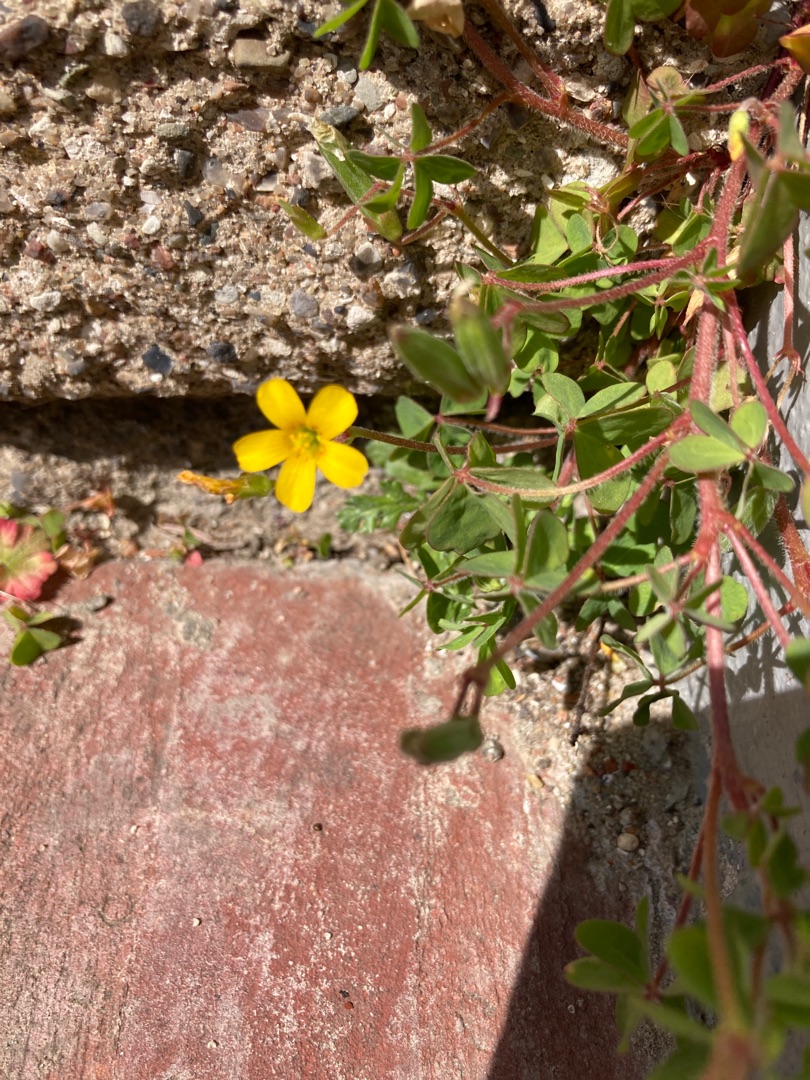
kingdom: Plantae
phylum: Tracheophyta
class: Magnoliopsida
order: Oxalidales
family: Oxalidaceae
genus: Oxalis
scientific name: Oxalis corniculata
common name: Nedliggende surkløver
